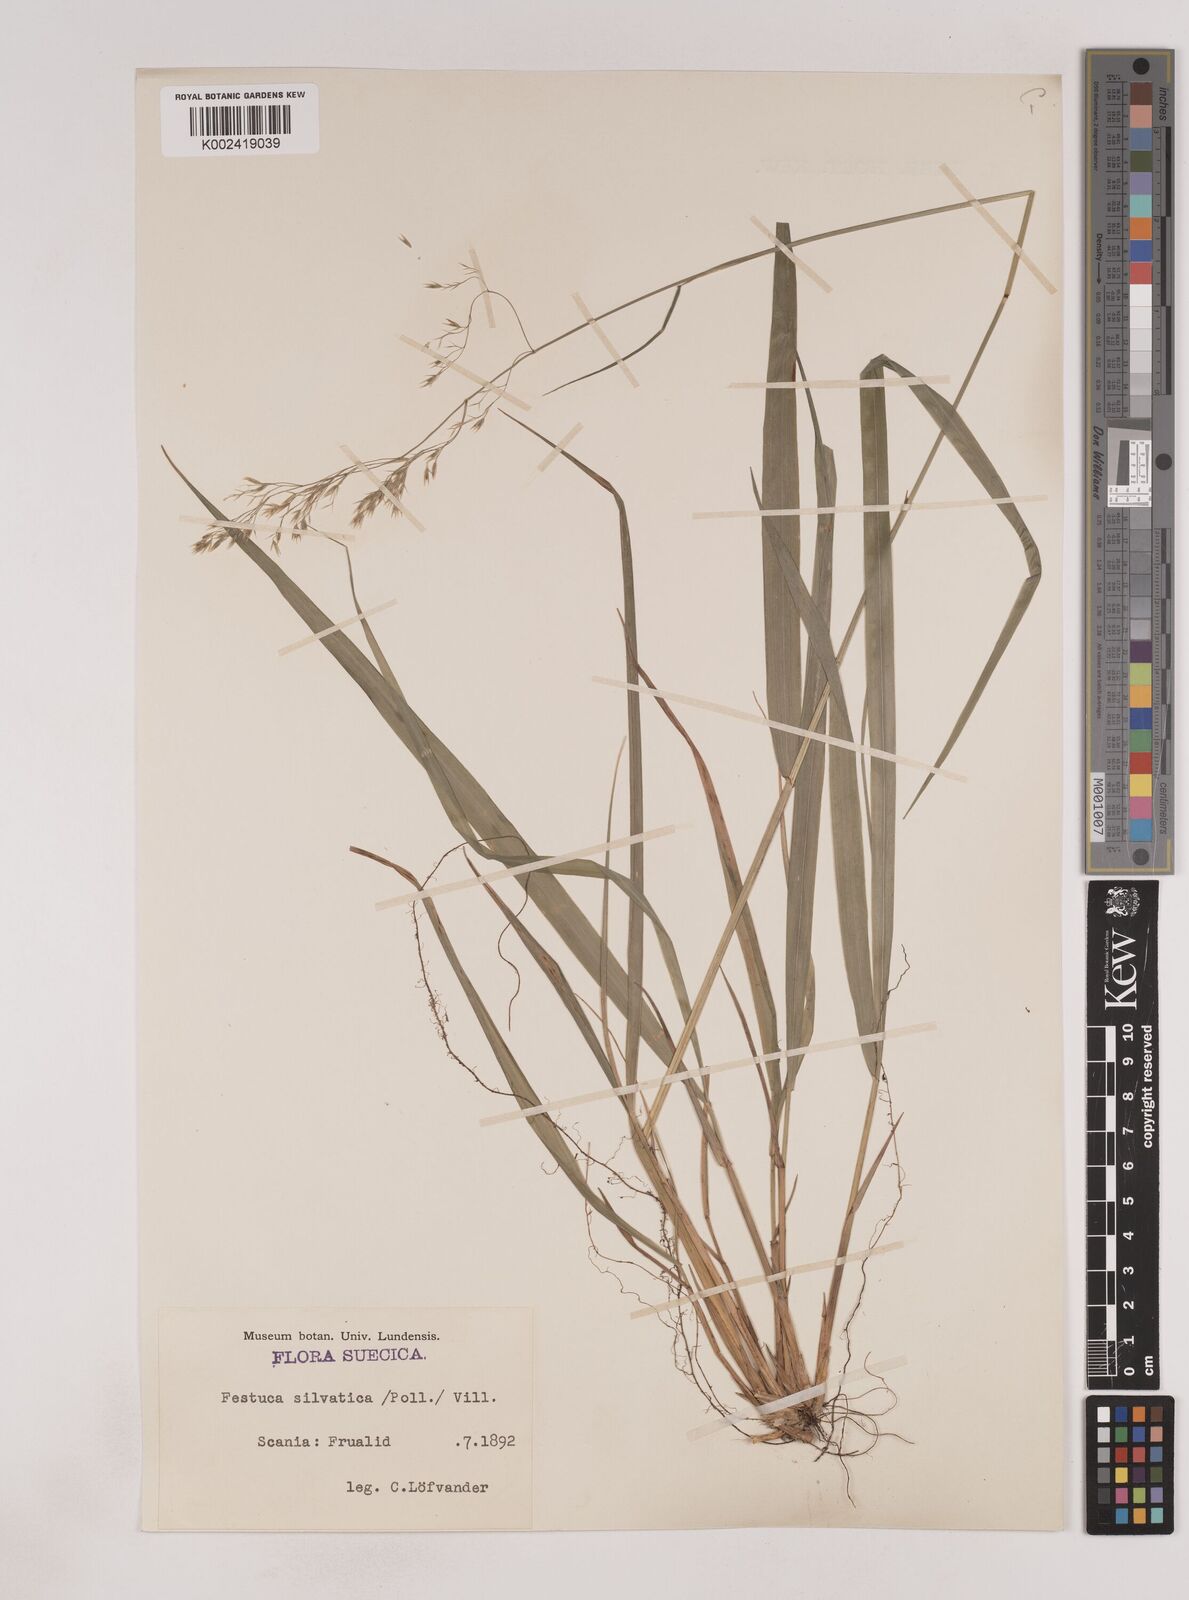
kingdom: Plantae
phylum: Tracheophyta
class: Liliopsida
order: Poales
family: Poaceae
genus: Festuca
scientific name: Festuca drymeja
